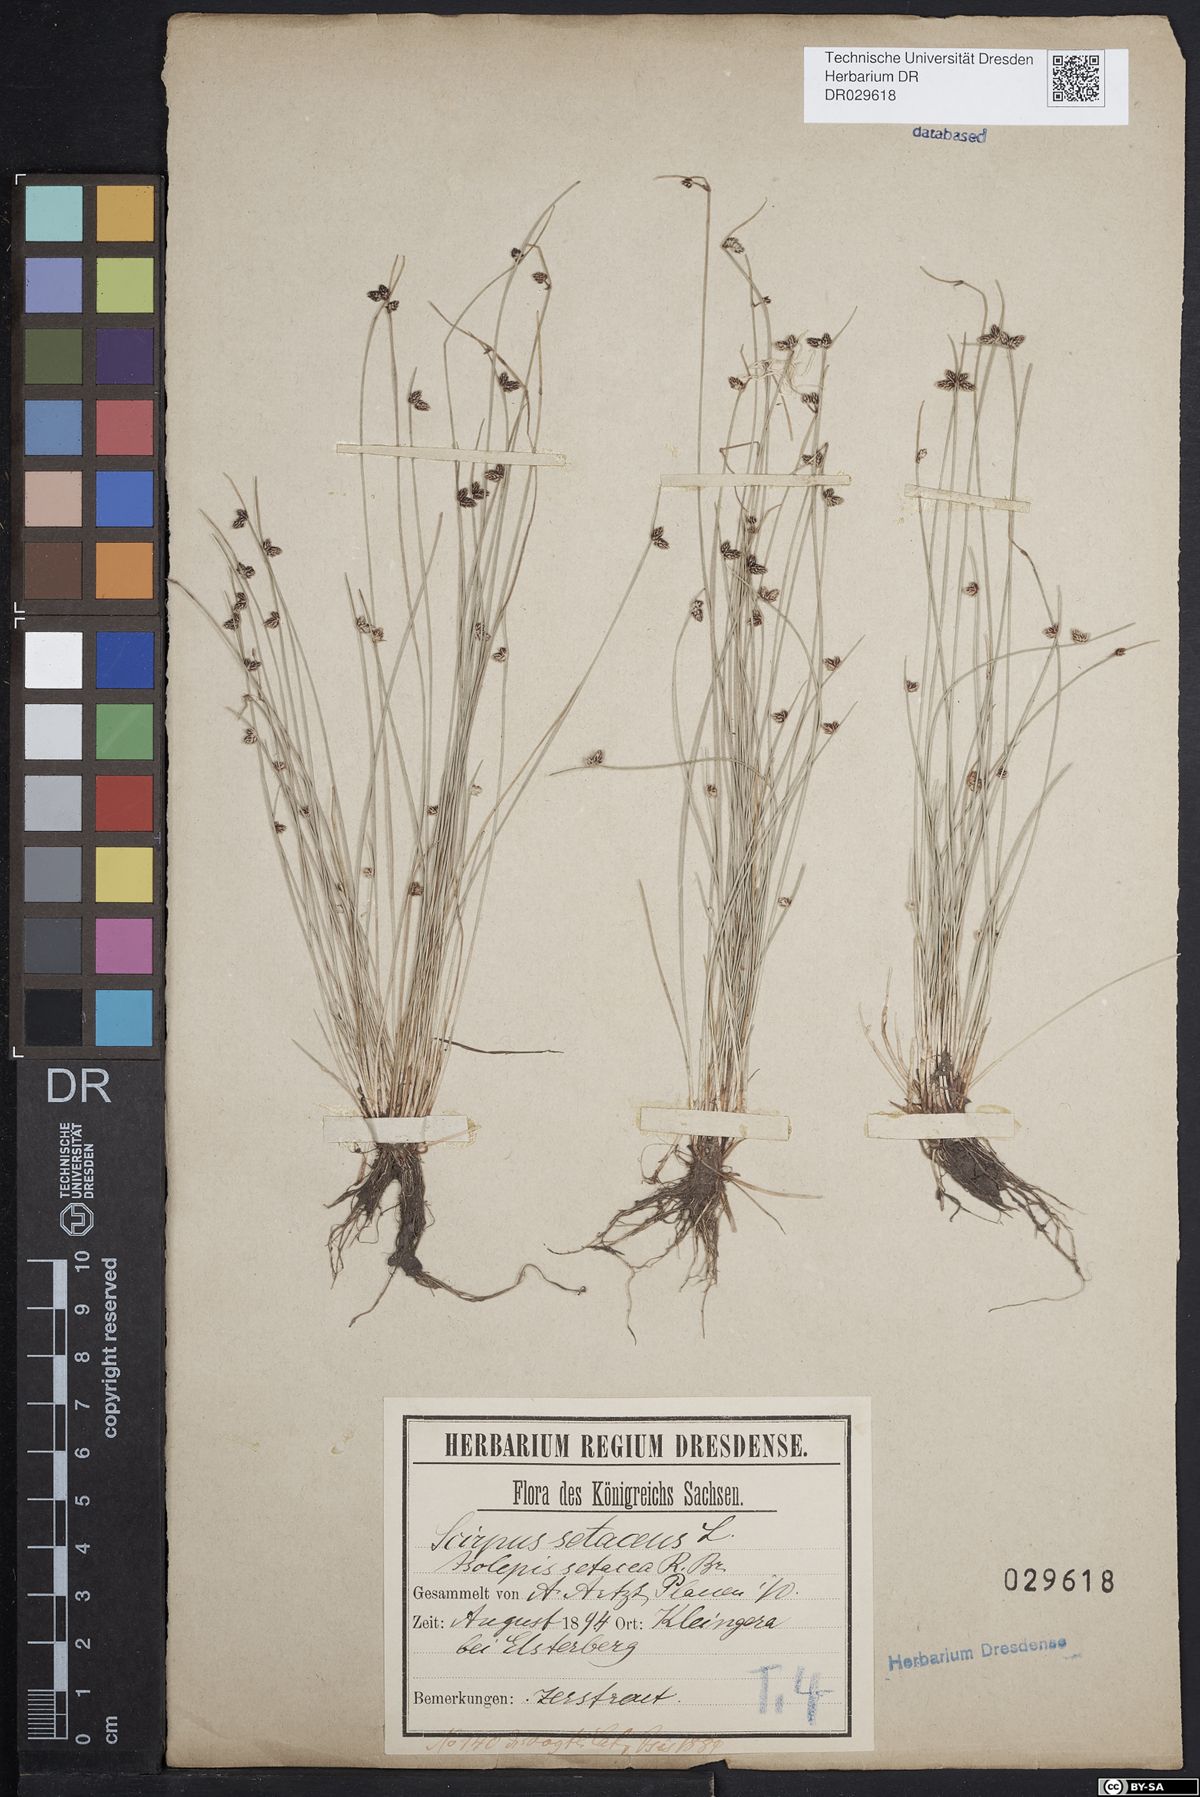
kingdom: Plantae
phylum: Tracheophyta
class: Liliopsida
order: Poales
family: Cyperaceae
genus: Isolepis
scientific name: Isolepis setacea
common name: Bristle club-rush
